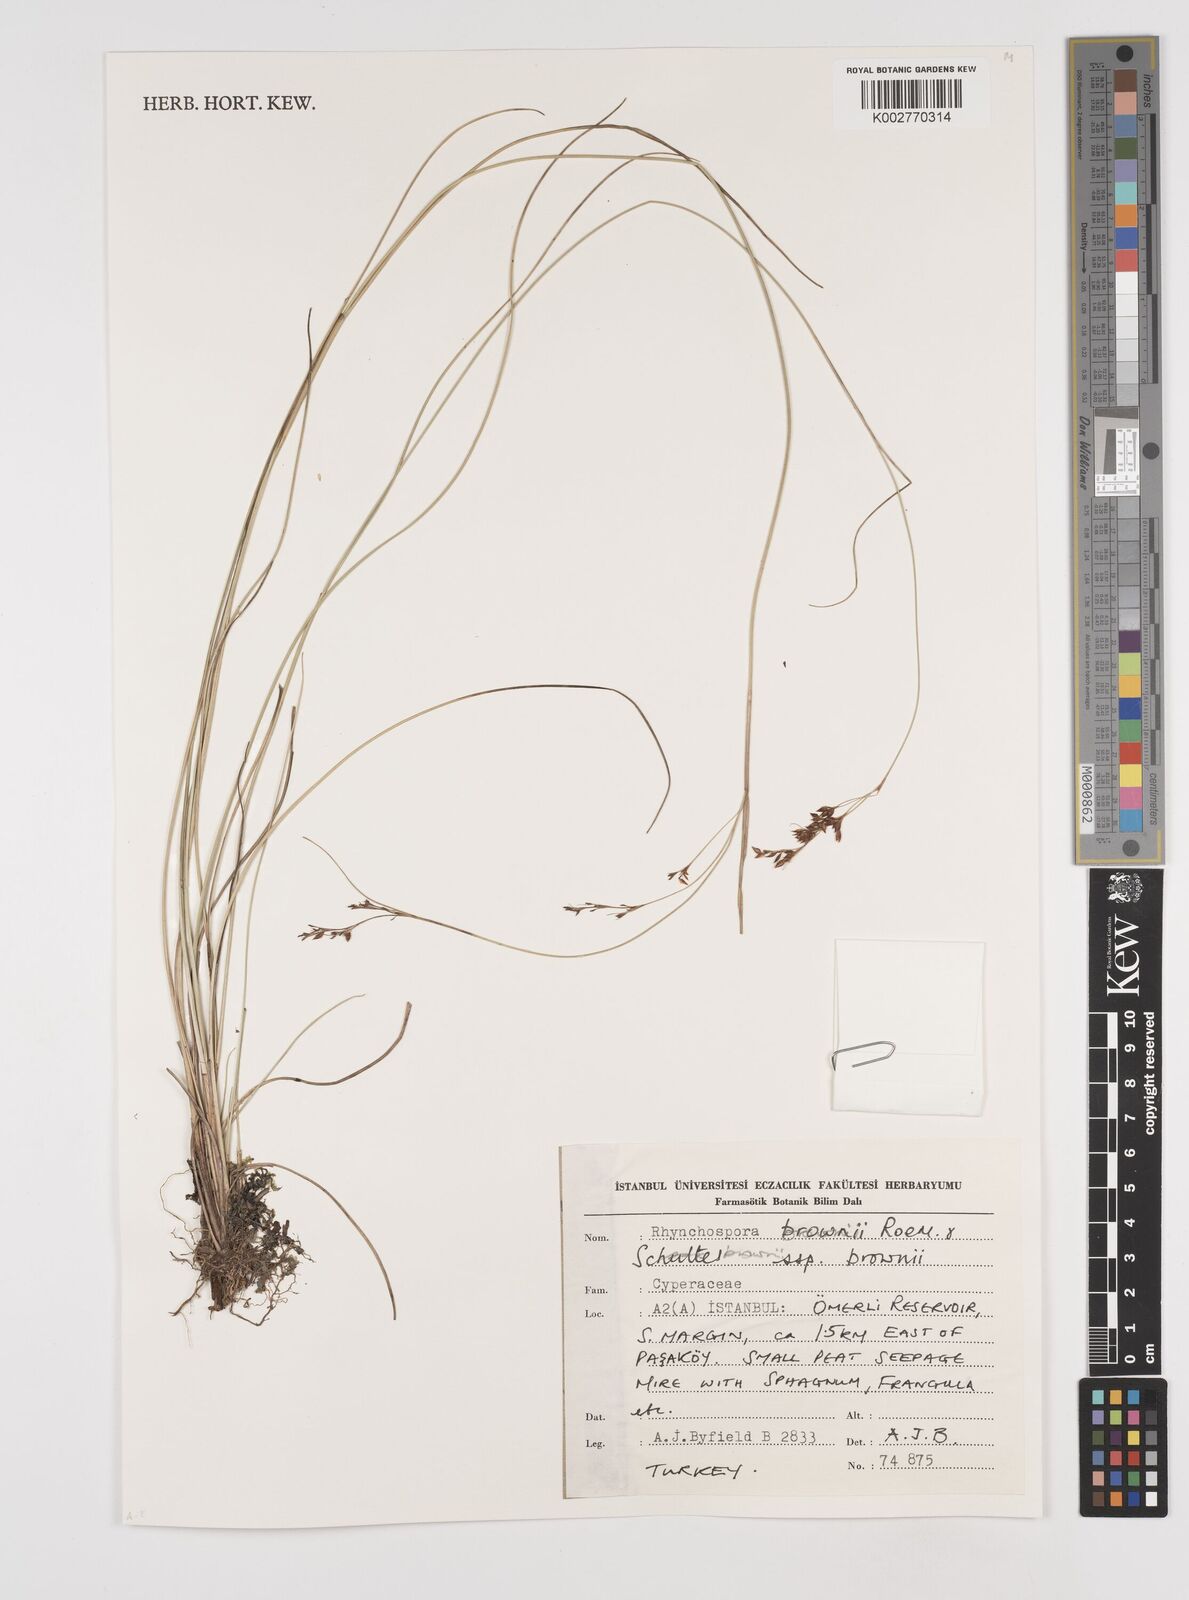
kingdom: Plantae
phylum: Tracheophyta
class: Liliopsida
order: Poales
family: Cyperaceae
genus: Rhynchospora
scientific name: Rhynchospora brownii
